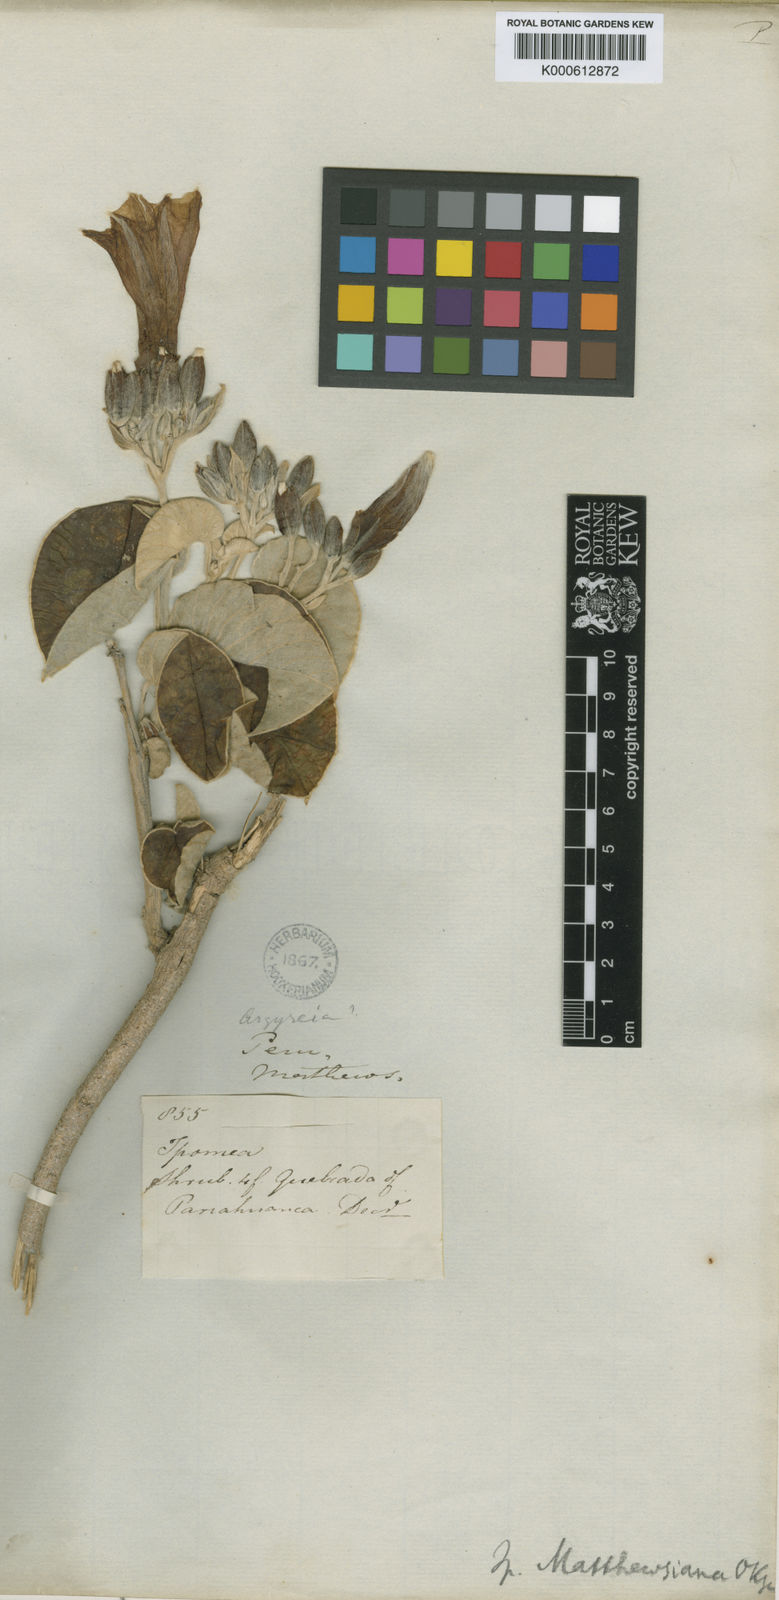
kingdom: Plantae
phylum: Tracheophyta
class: Magnoliopsida
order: Solanales
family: Convolvulaceae
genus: Ipomoea
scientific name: Ipomoea mathewsiana
